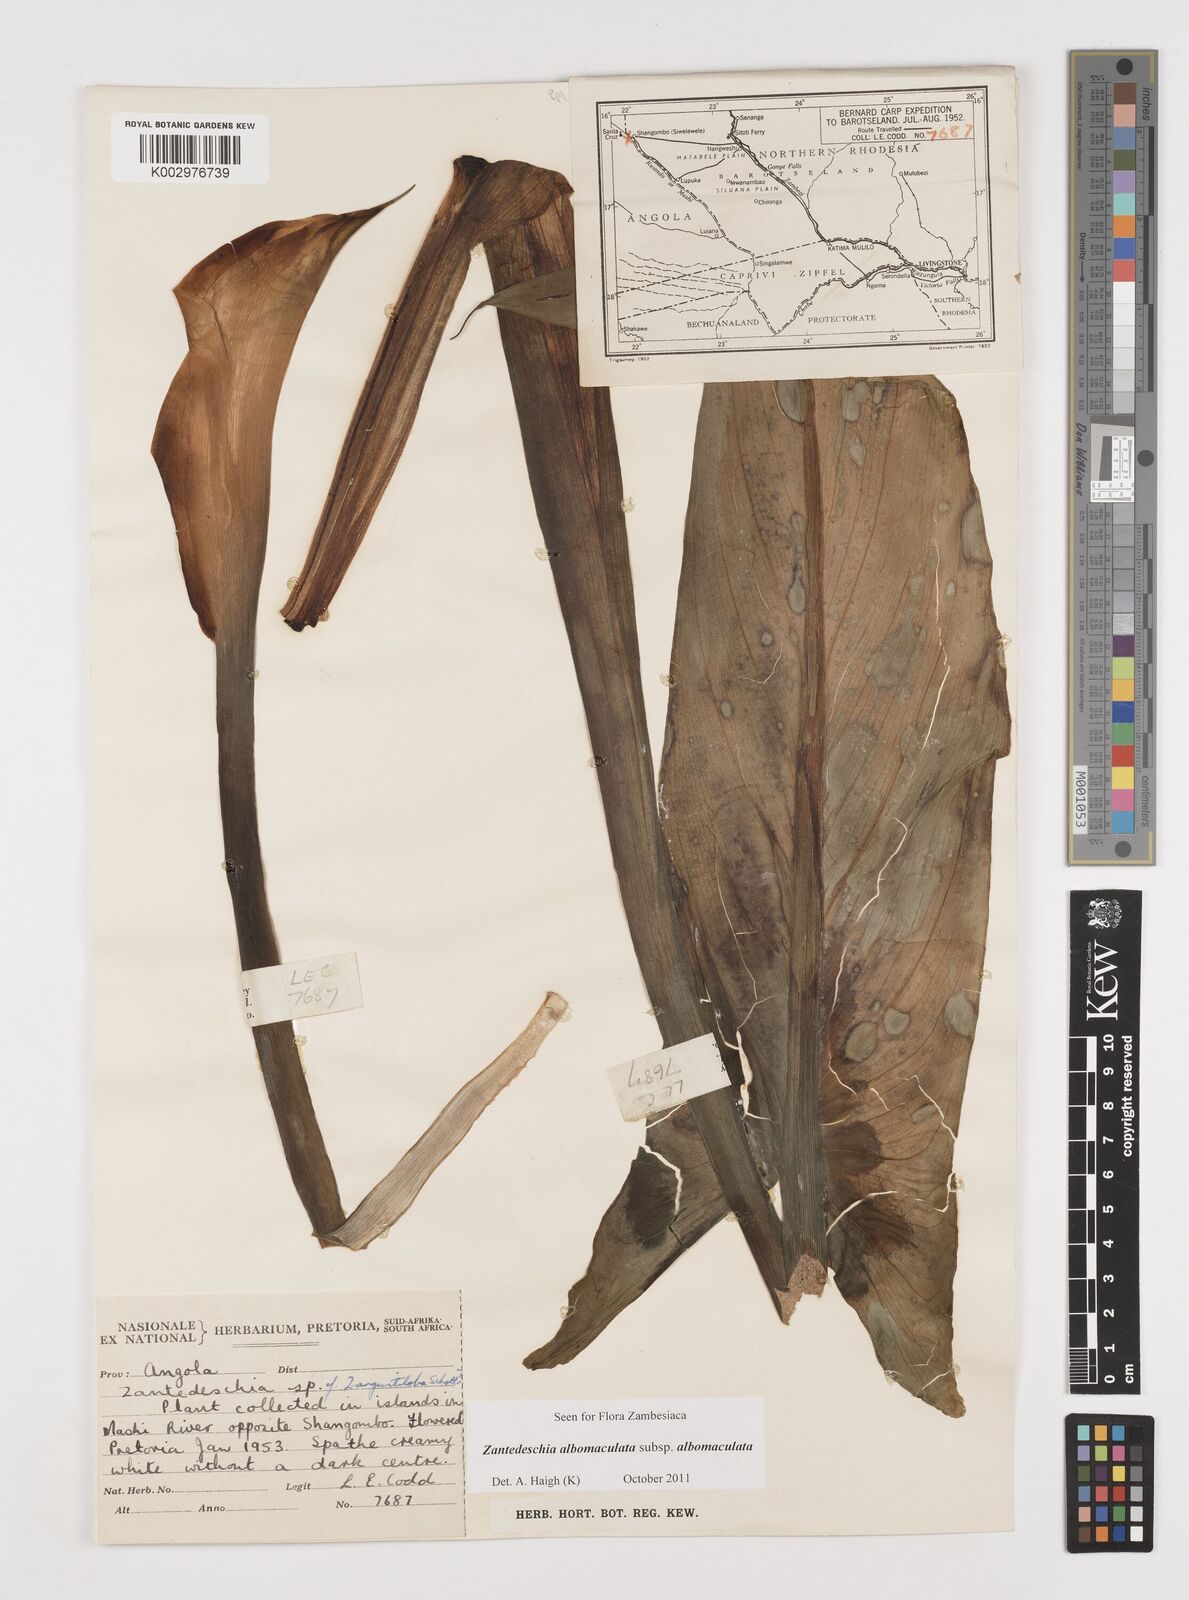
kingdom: Plantae
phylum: Tracheophyta
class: Liliopsida
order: Alismatales
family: Araceae
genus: Zantedeschia
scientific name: Zantedeschia albomaculata
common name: Spotted calla lily
